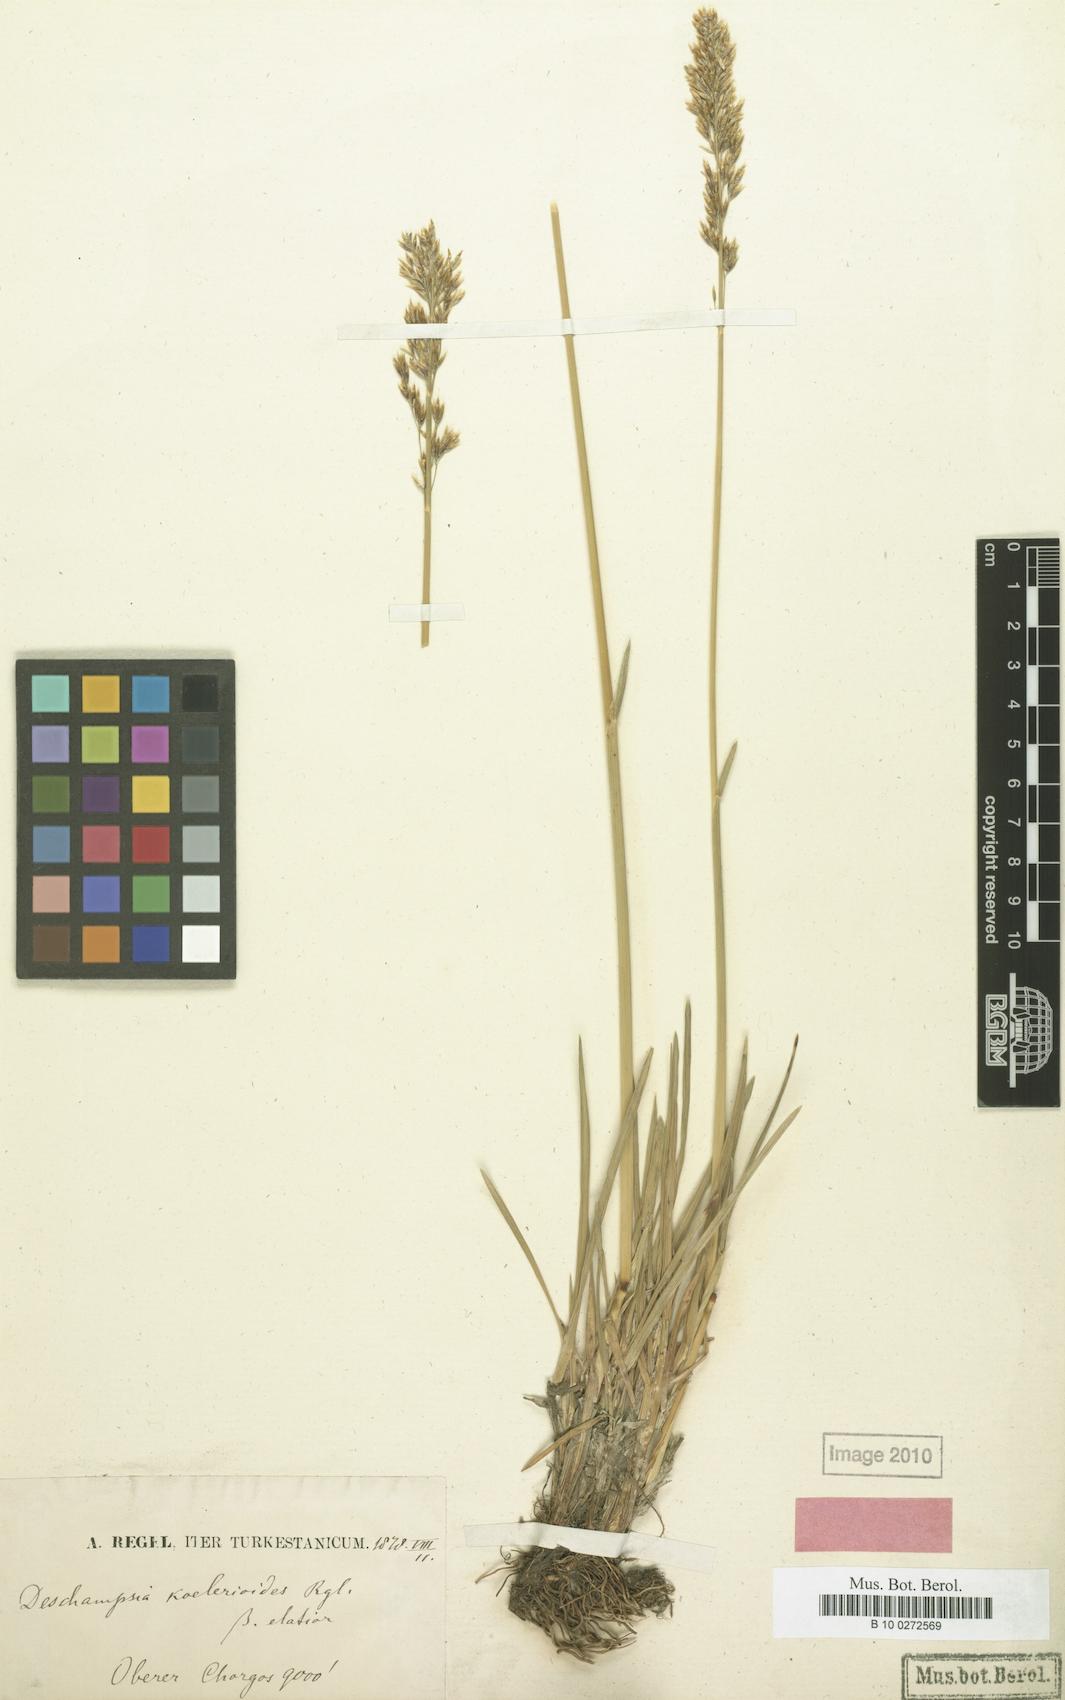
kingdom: Plantae
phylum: Tracheophyta
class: Liliopsida
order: Poales
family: Poaceae
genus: Deschampsia
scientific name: Deschampsia koelerioides
